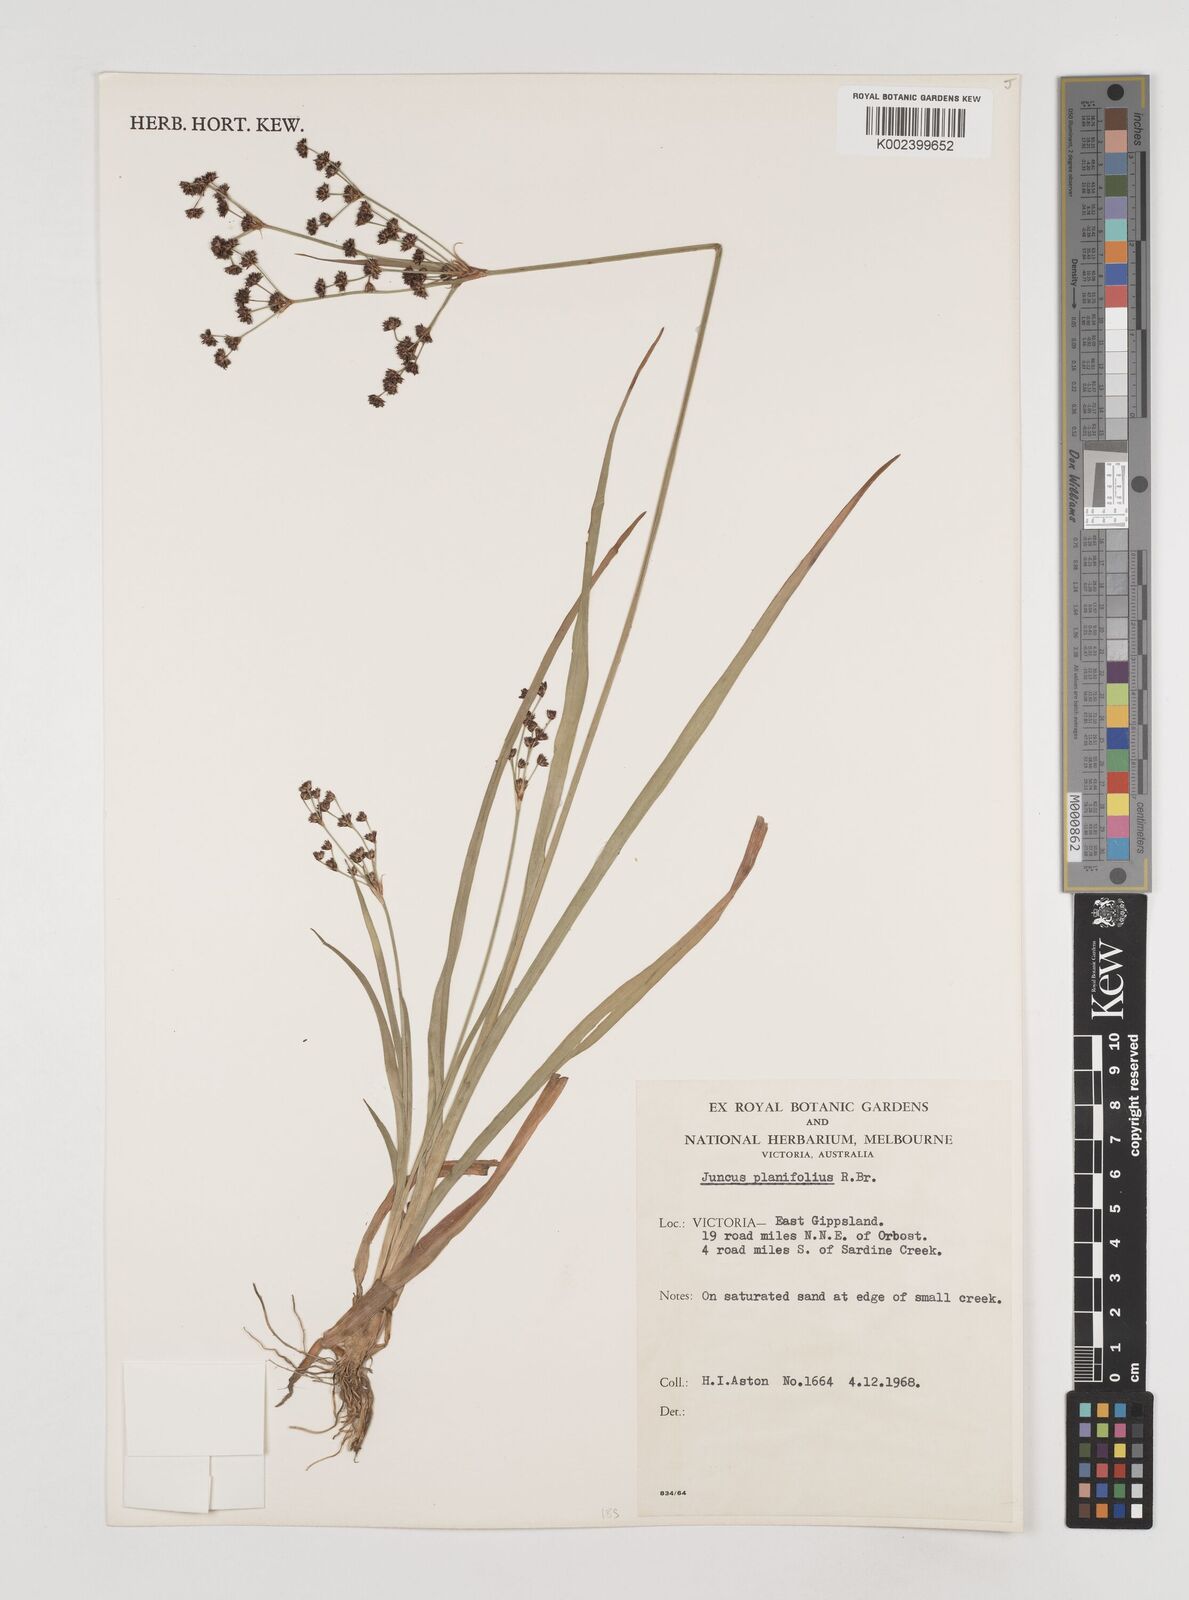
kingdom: Plantae
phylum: Tracheophyta
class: Liliopsida
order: Poales
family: Juncaceae
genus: Juncus
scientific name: Juncus planifolius
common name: Broadleaf rush
